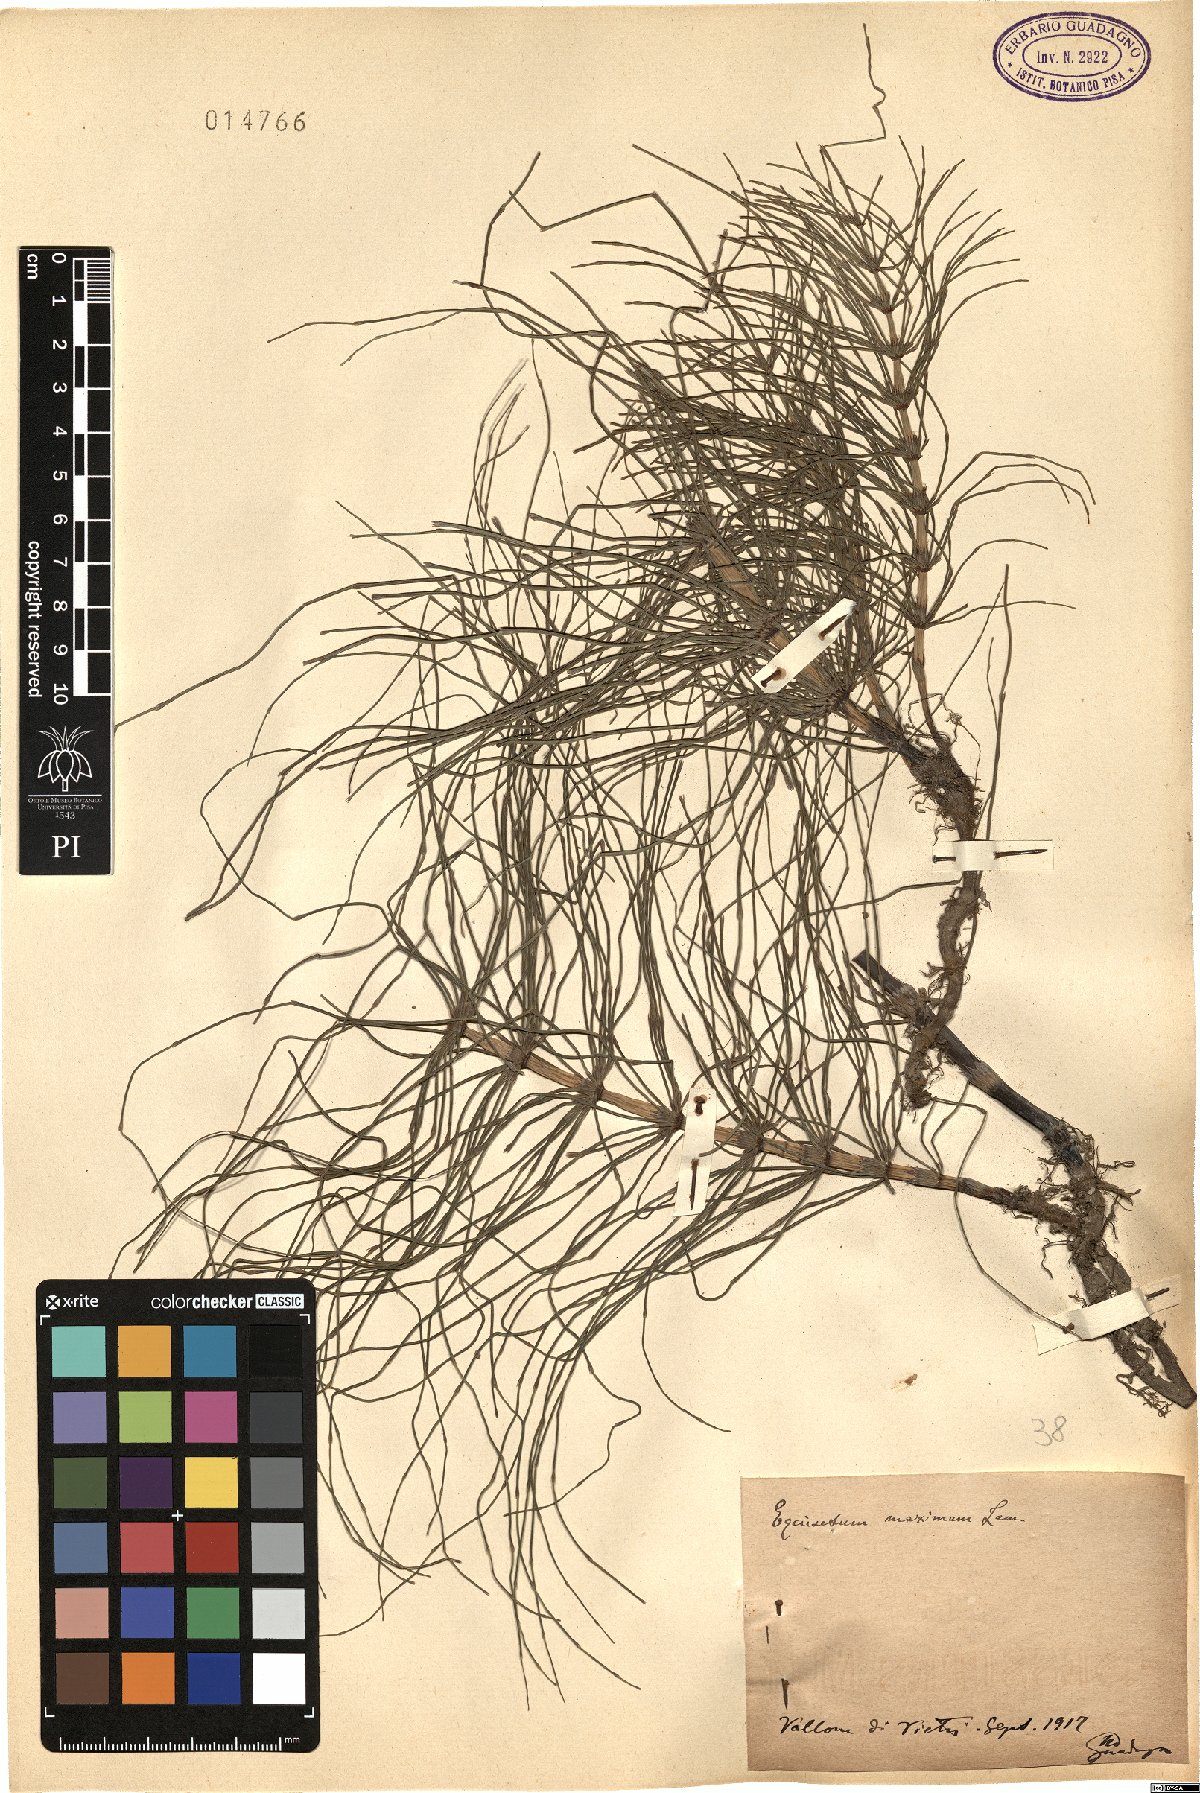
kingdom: Plantae
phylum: Tracheophyta
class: Polypodiopsida
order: Equisetales
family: Equisetaceae
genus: Equisetum
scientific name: Equisetum telmateia
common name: Great horsetail
